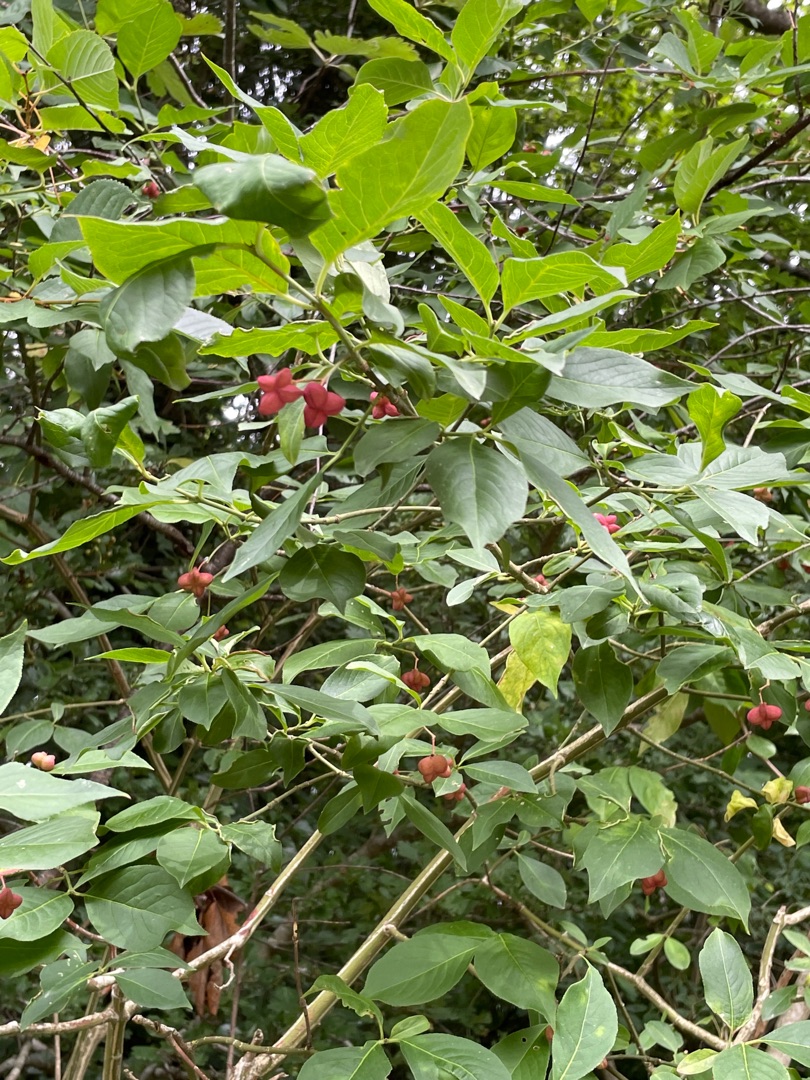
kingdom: Plantae
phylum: Tracheophyta
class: Magnoliopsida
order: Celastrales
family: Celastraceae
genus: Euonymus
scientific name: Euonymus europaeus
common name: Benved
